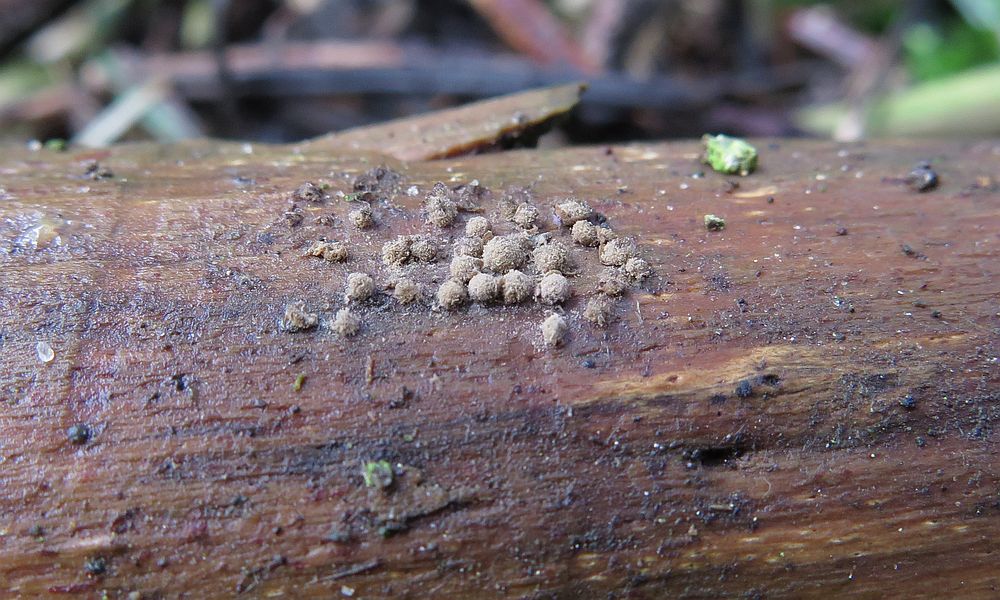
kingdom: Protozoa
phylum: Mycetozoa
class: Myxomycetes
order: Trichiales
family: Dianemataceae
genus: Prototrichia
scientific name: Prototrichia metallica
